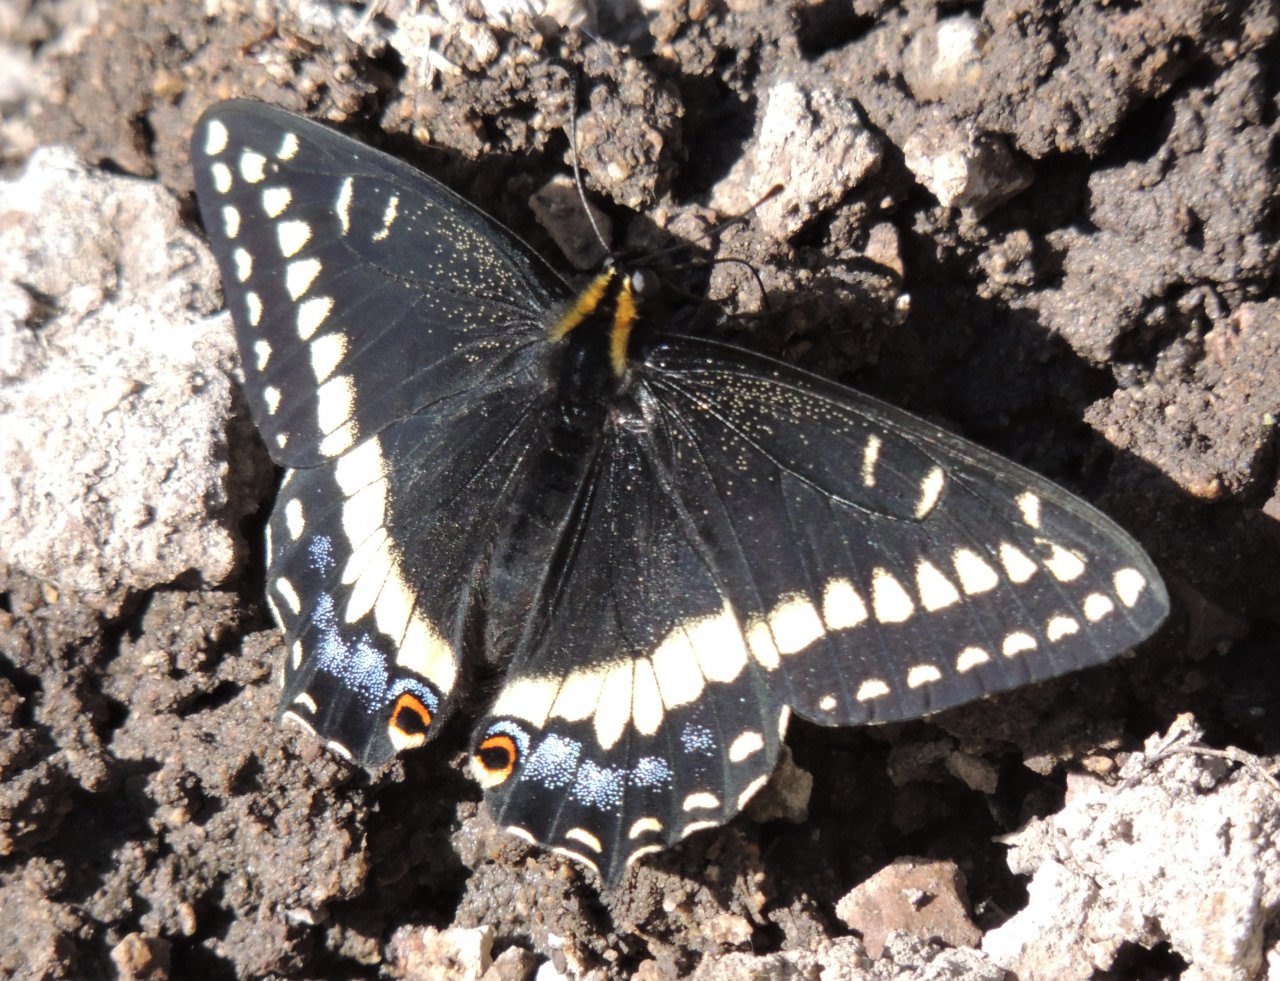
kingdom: Animalia
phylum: Arthropoda
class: Insecta
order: Lepidoptera
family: Papilionidae
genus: Papilio
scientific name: Papilio indra
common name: Indra Swallowtail
